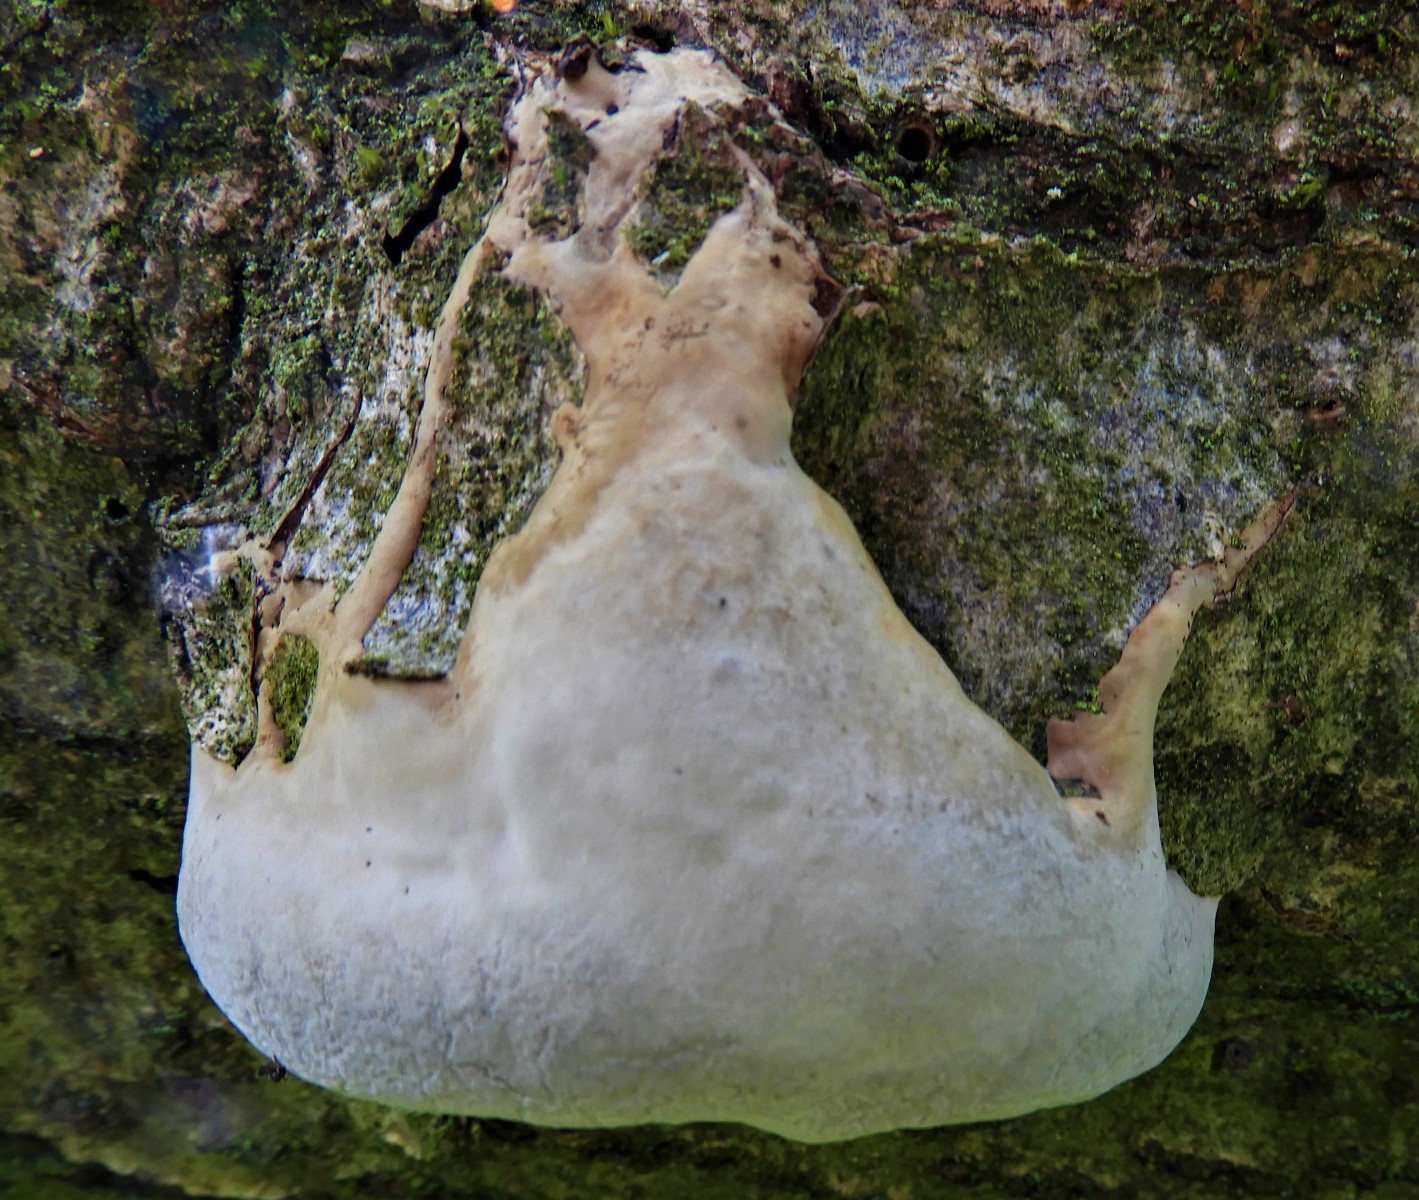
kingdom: Fungi
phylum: Basidiomycota
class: Agaricomycetes
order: Polyporales
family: Fomitopsidaceae
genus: Fomitopsis
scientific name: Fomitopsis pinicola
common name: randbæltet hovporesvamp
